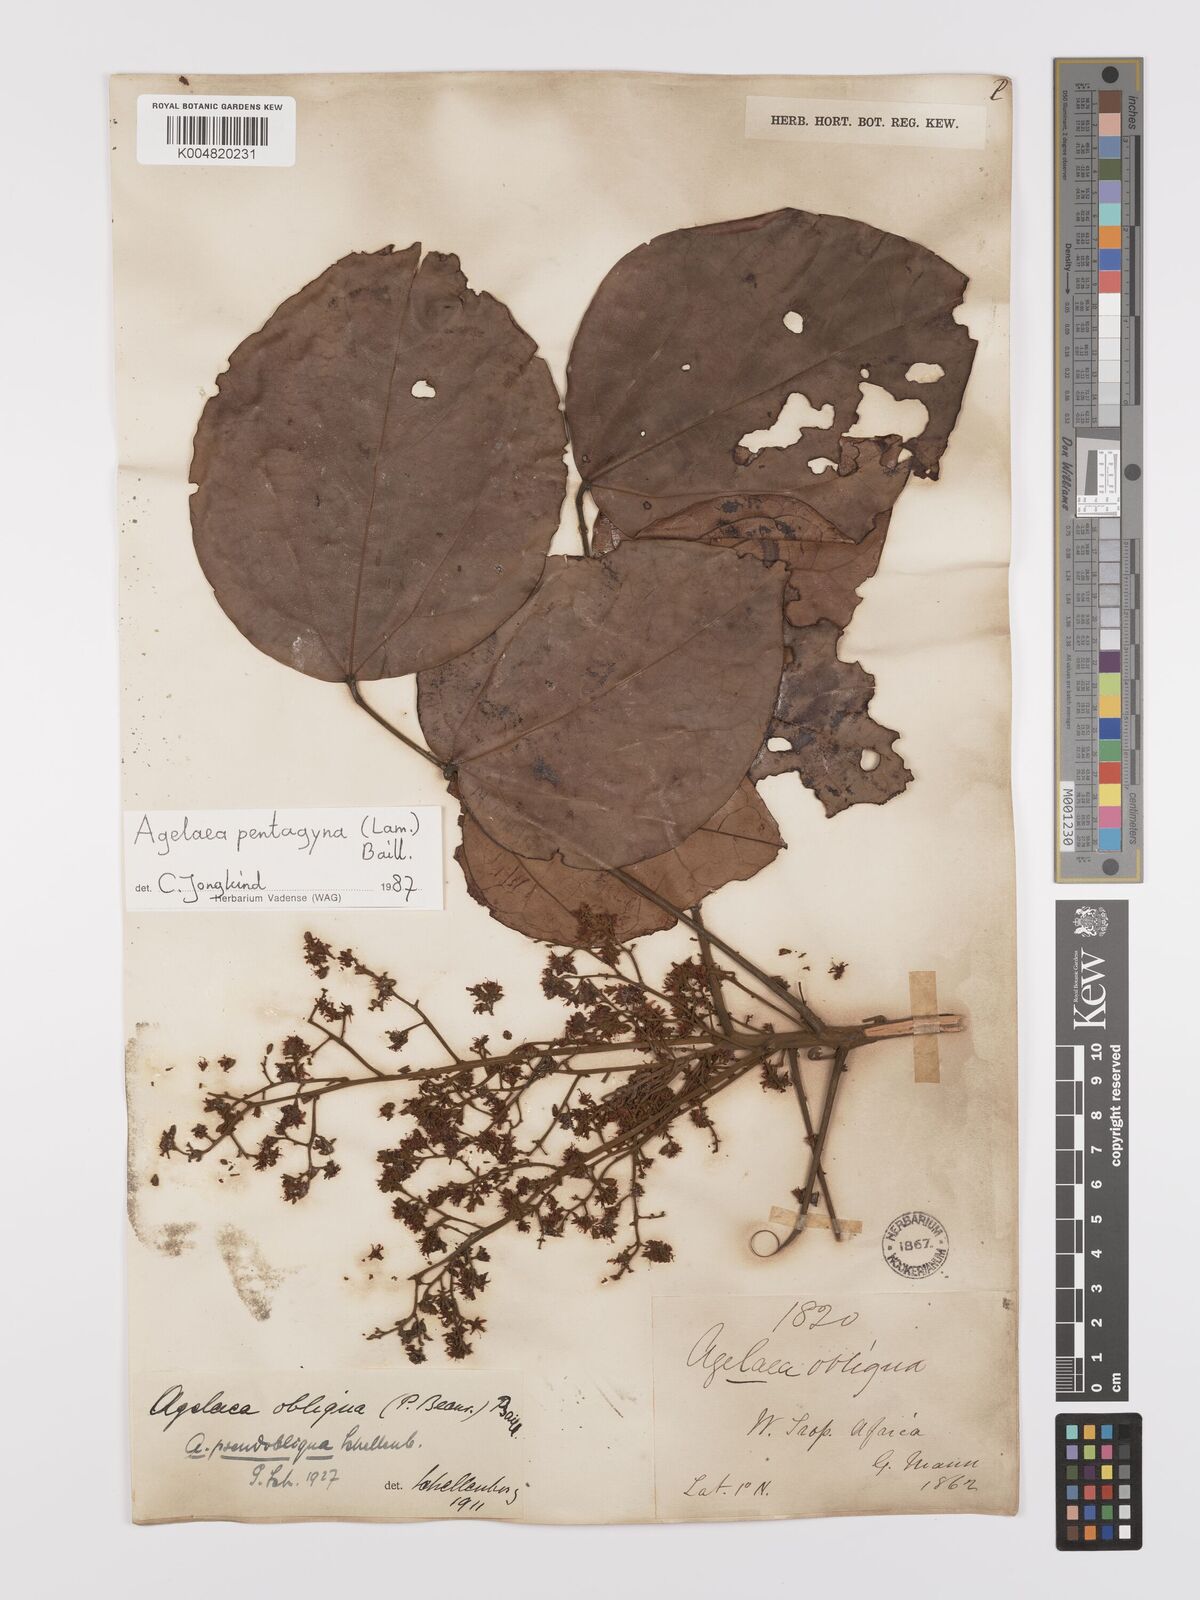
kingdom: Plantae
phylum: Tracheophyta
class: Magnoliopsida
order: Oxalidales
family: Connaraceae
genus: Agelaea
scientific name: Agelaea pentagyna
